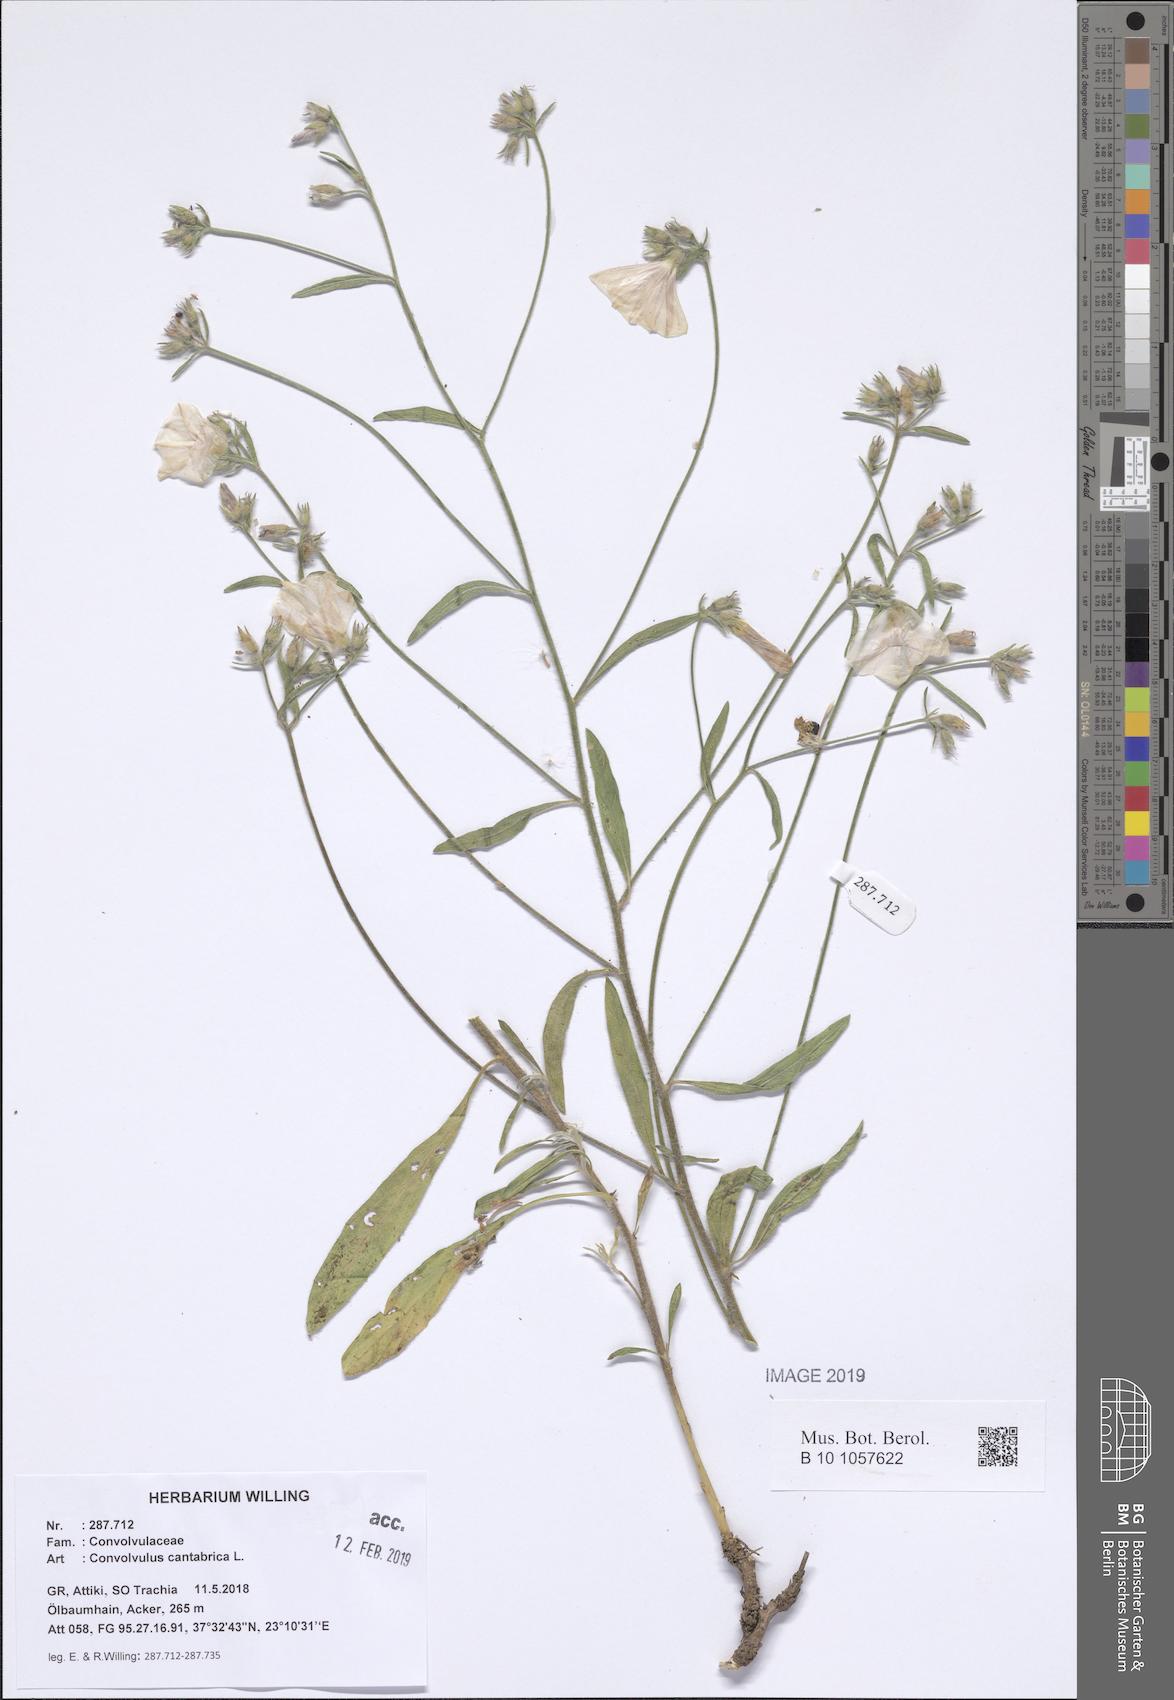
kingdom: Plantae
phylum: Tracheophyta
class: Magnoliopsida
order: Solanales
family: Convolvulaceae
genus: Convolvulus
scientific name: Convolvulus cantabrica
